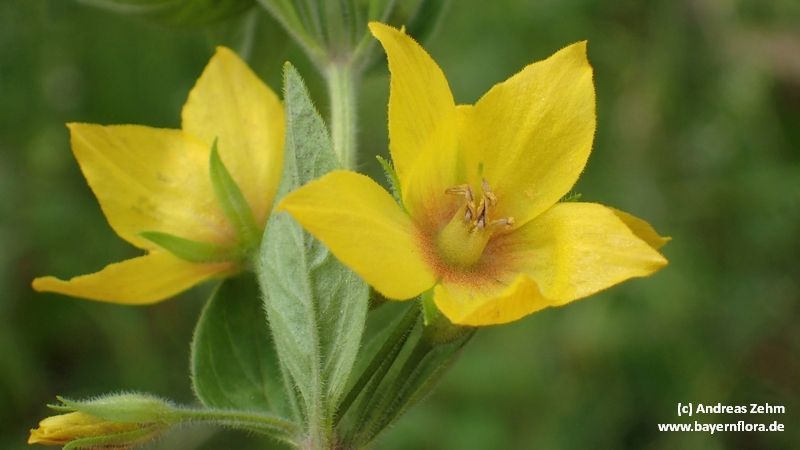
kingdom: Plantae
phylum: Tracheophyta
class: Magnoliopsida
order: Ericales
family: Primulaceae
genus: Lysimachia
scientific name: Lysimachia punctata
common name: Dotted loosestrife
